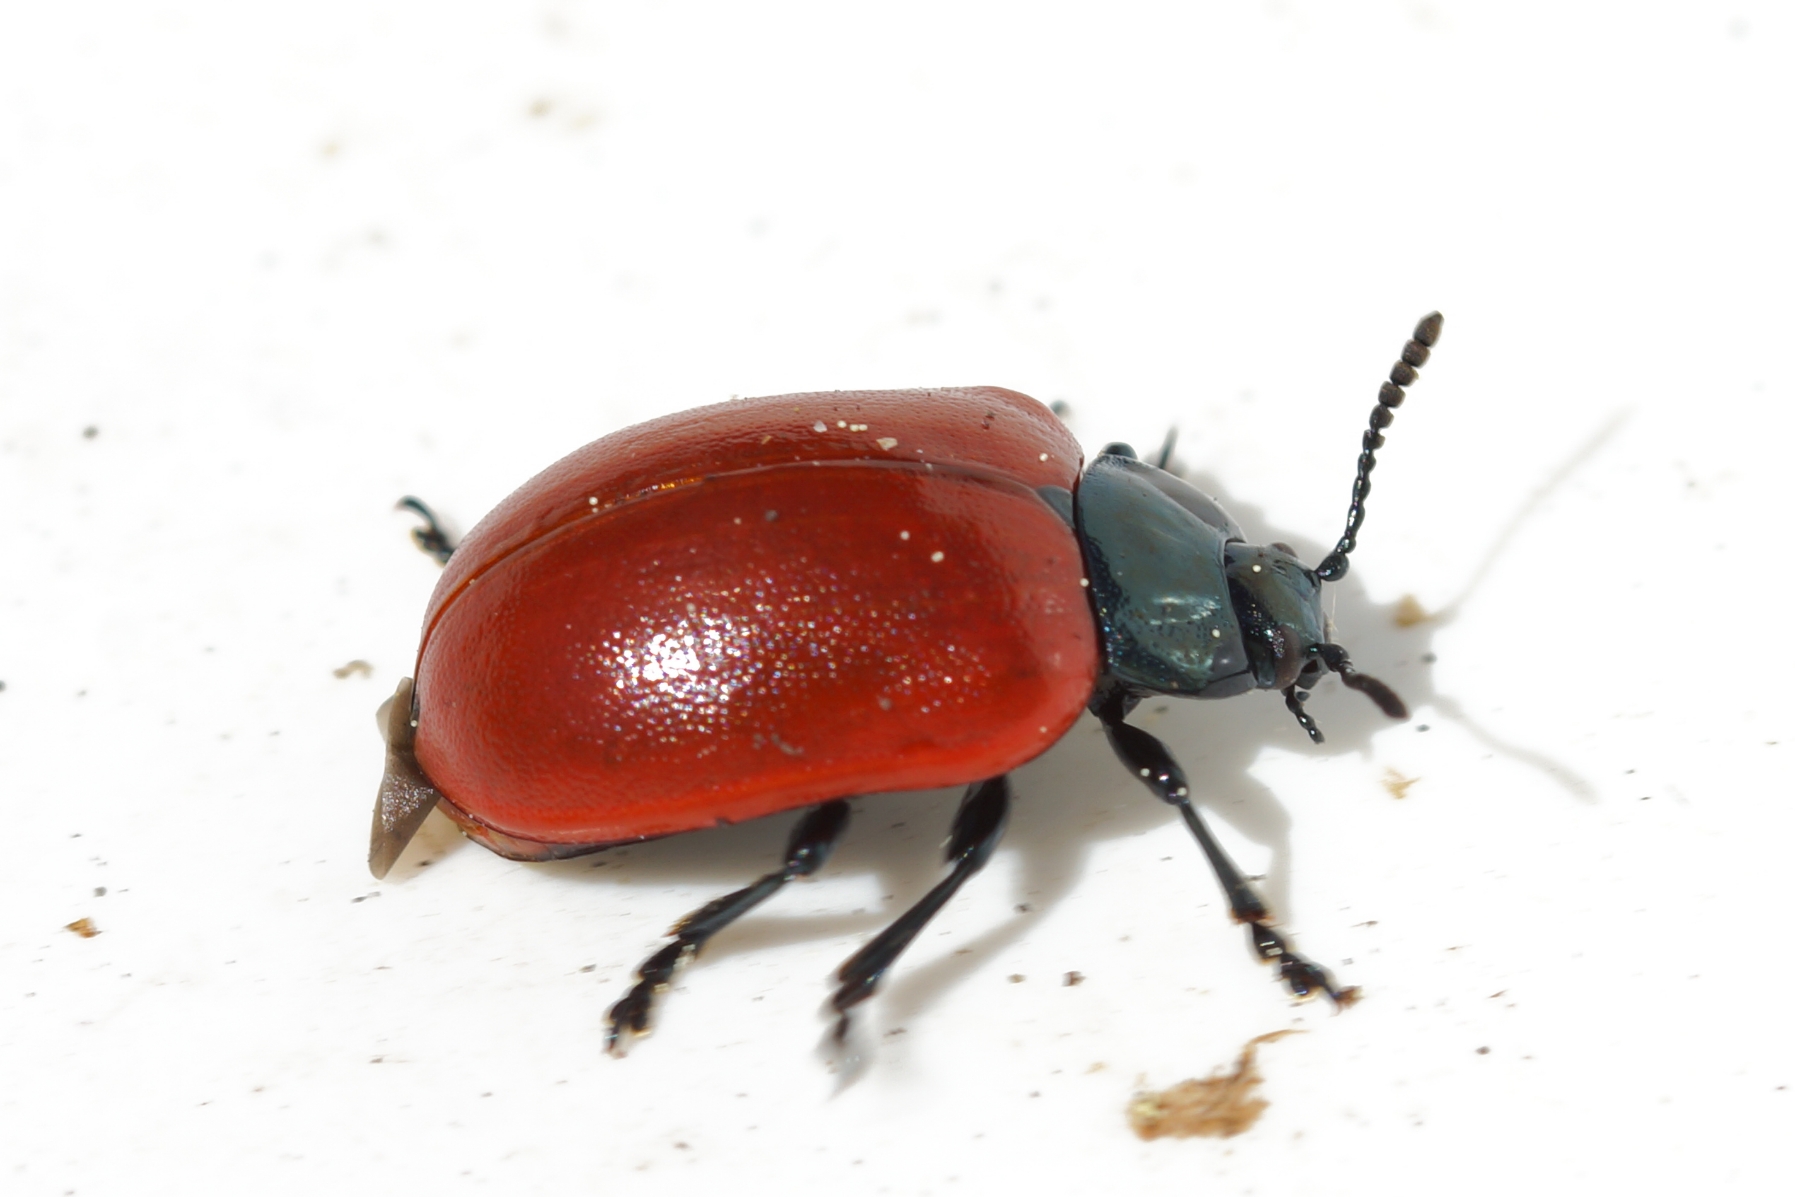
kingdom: Animalia
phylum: Arthropoda
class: Insecta
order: Coleoptera
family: Chrysomelidae
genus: Chrysomela
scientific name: Chrysomela populi
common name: Poppelbladbille
